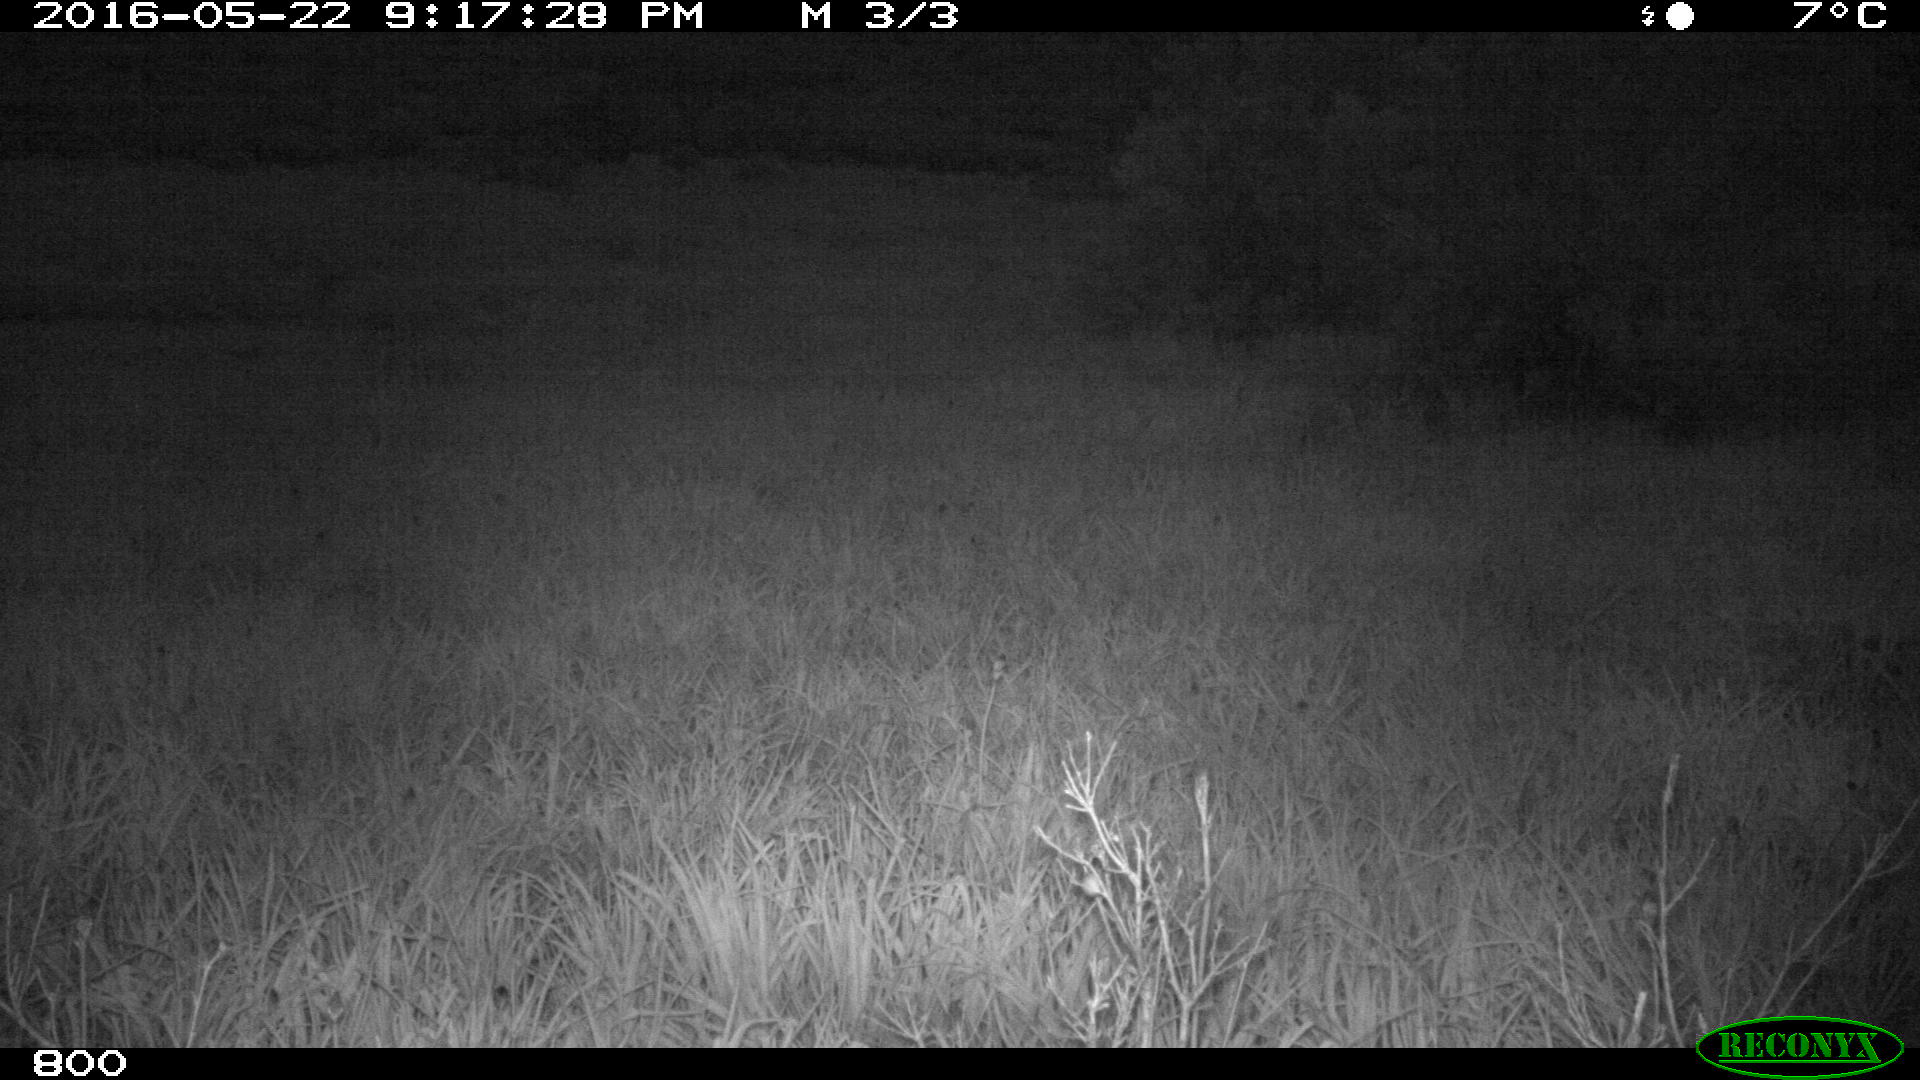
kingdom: Animalia
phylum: Chordata
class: Mammalia
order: Artiodactyla
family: Bovidae
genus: Bos
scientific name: Bos taurus
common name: Domesticated cattle
